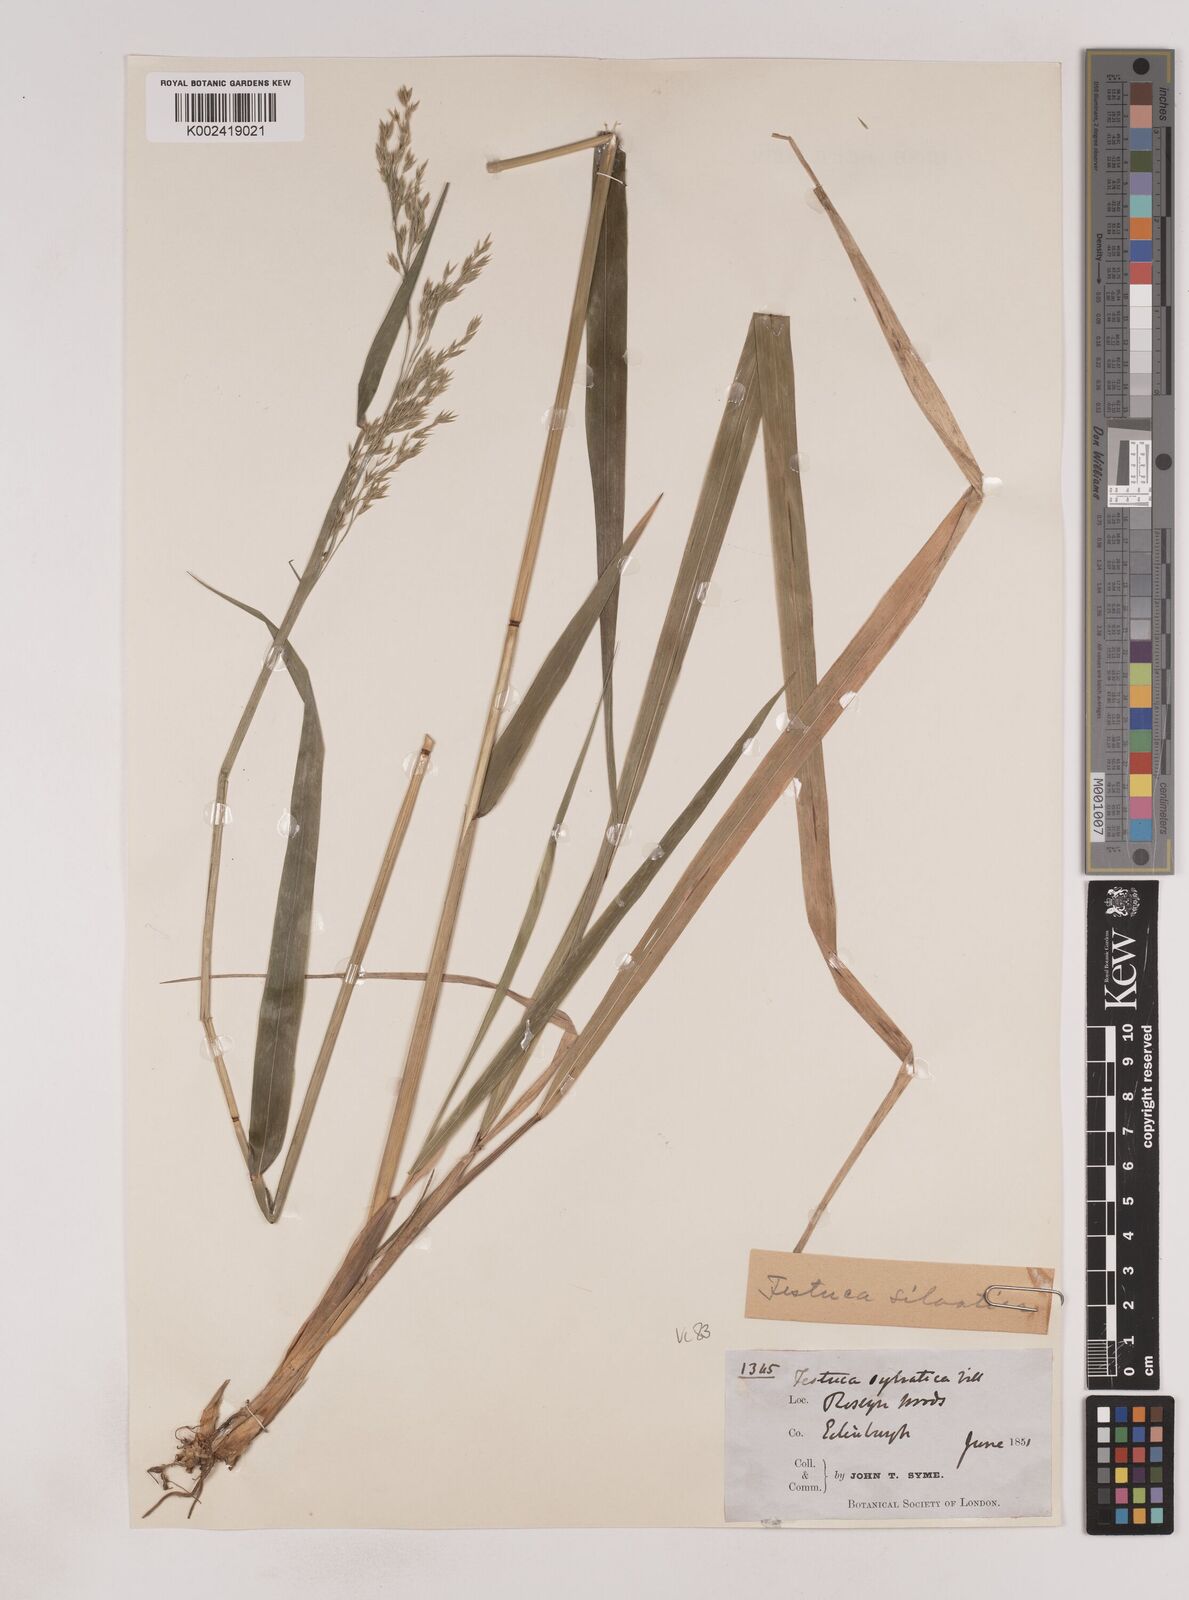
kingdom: Plantae
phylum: Tracheophyta
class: Liliopsida
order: Poales
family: Poaceae
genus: Festuca
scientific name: Festuca drymeja
